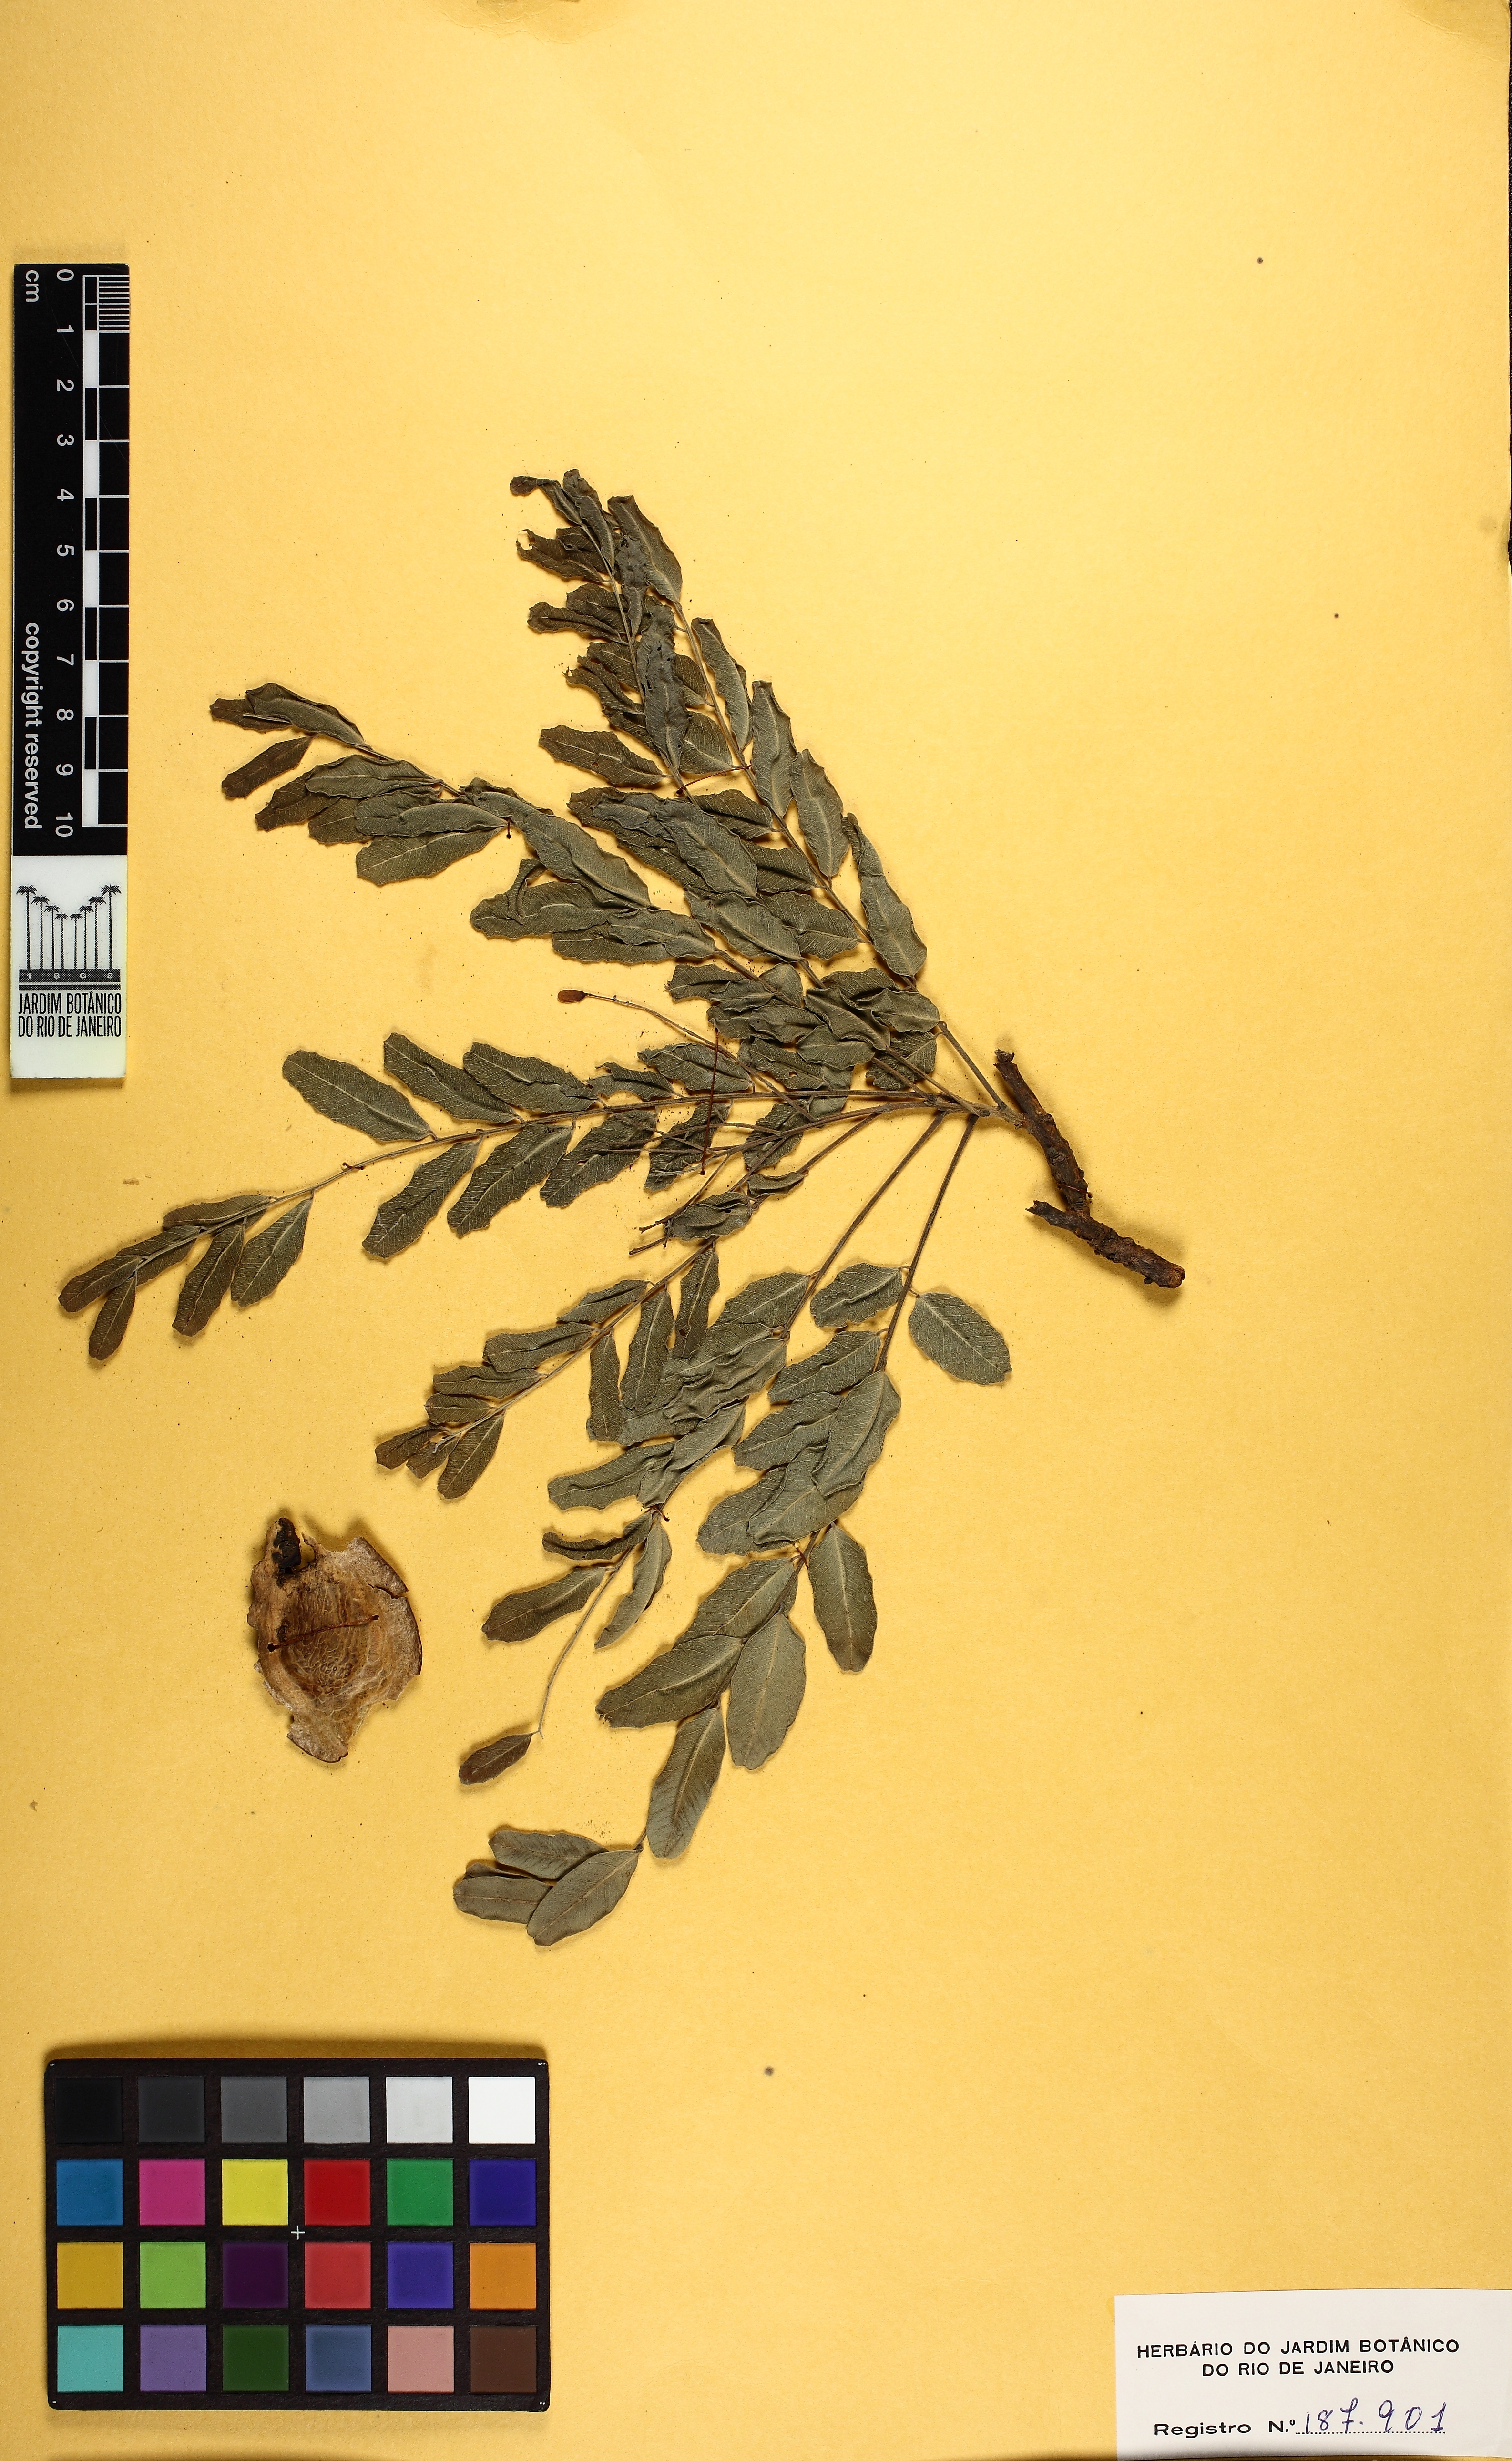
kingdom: Plantae
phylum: Tracheophyta
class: Magnoliopsida
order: Fabales
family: Fabaceae
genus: Pterodon
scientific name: Pterodon emarginatus
